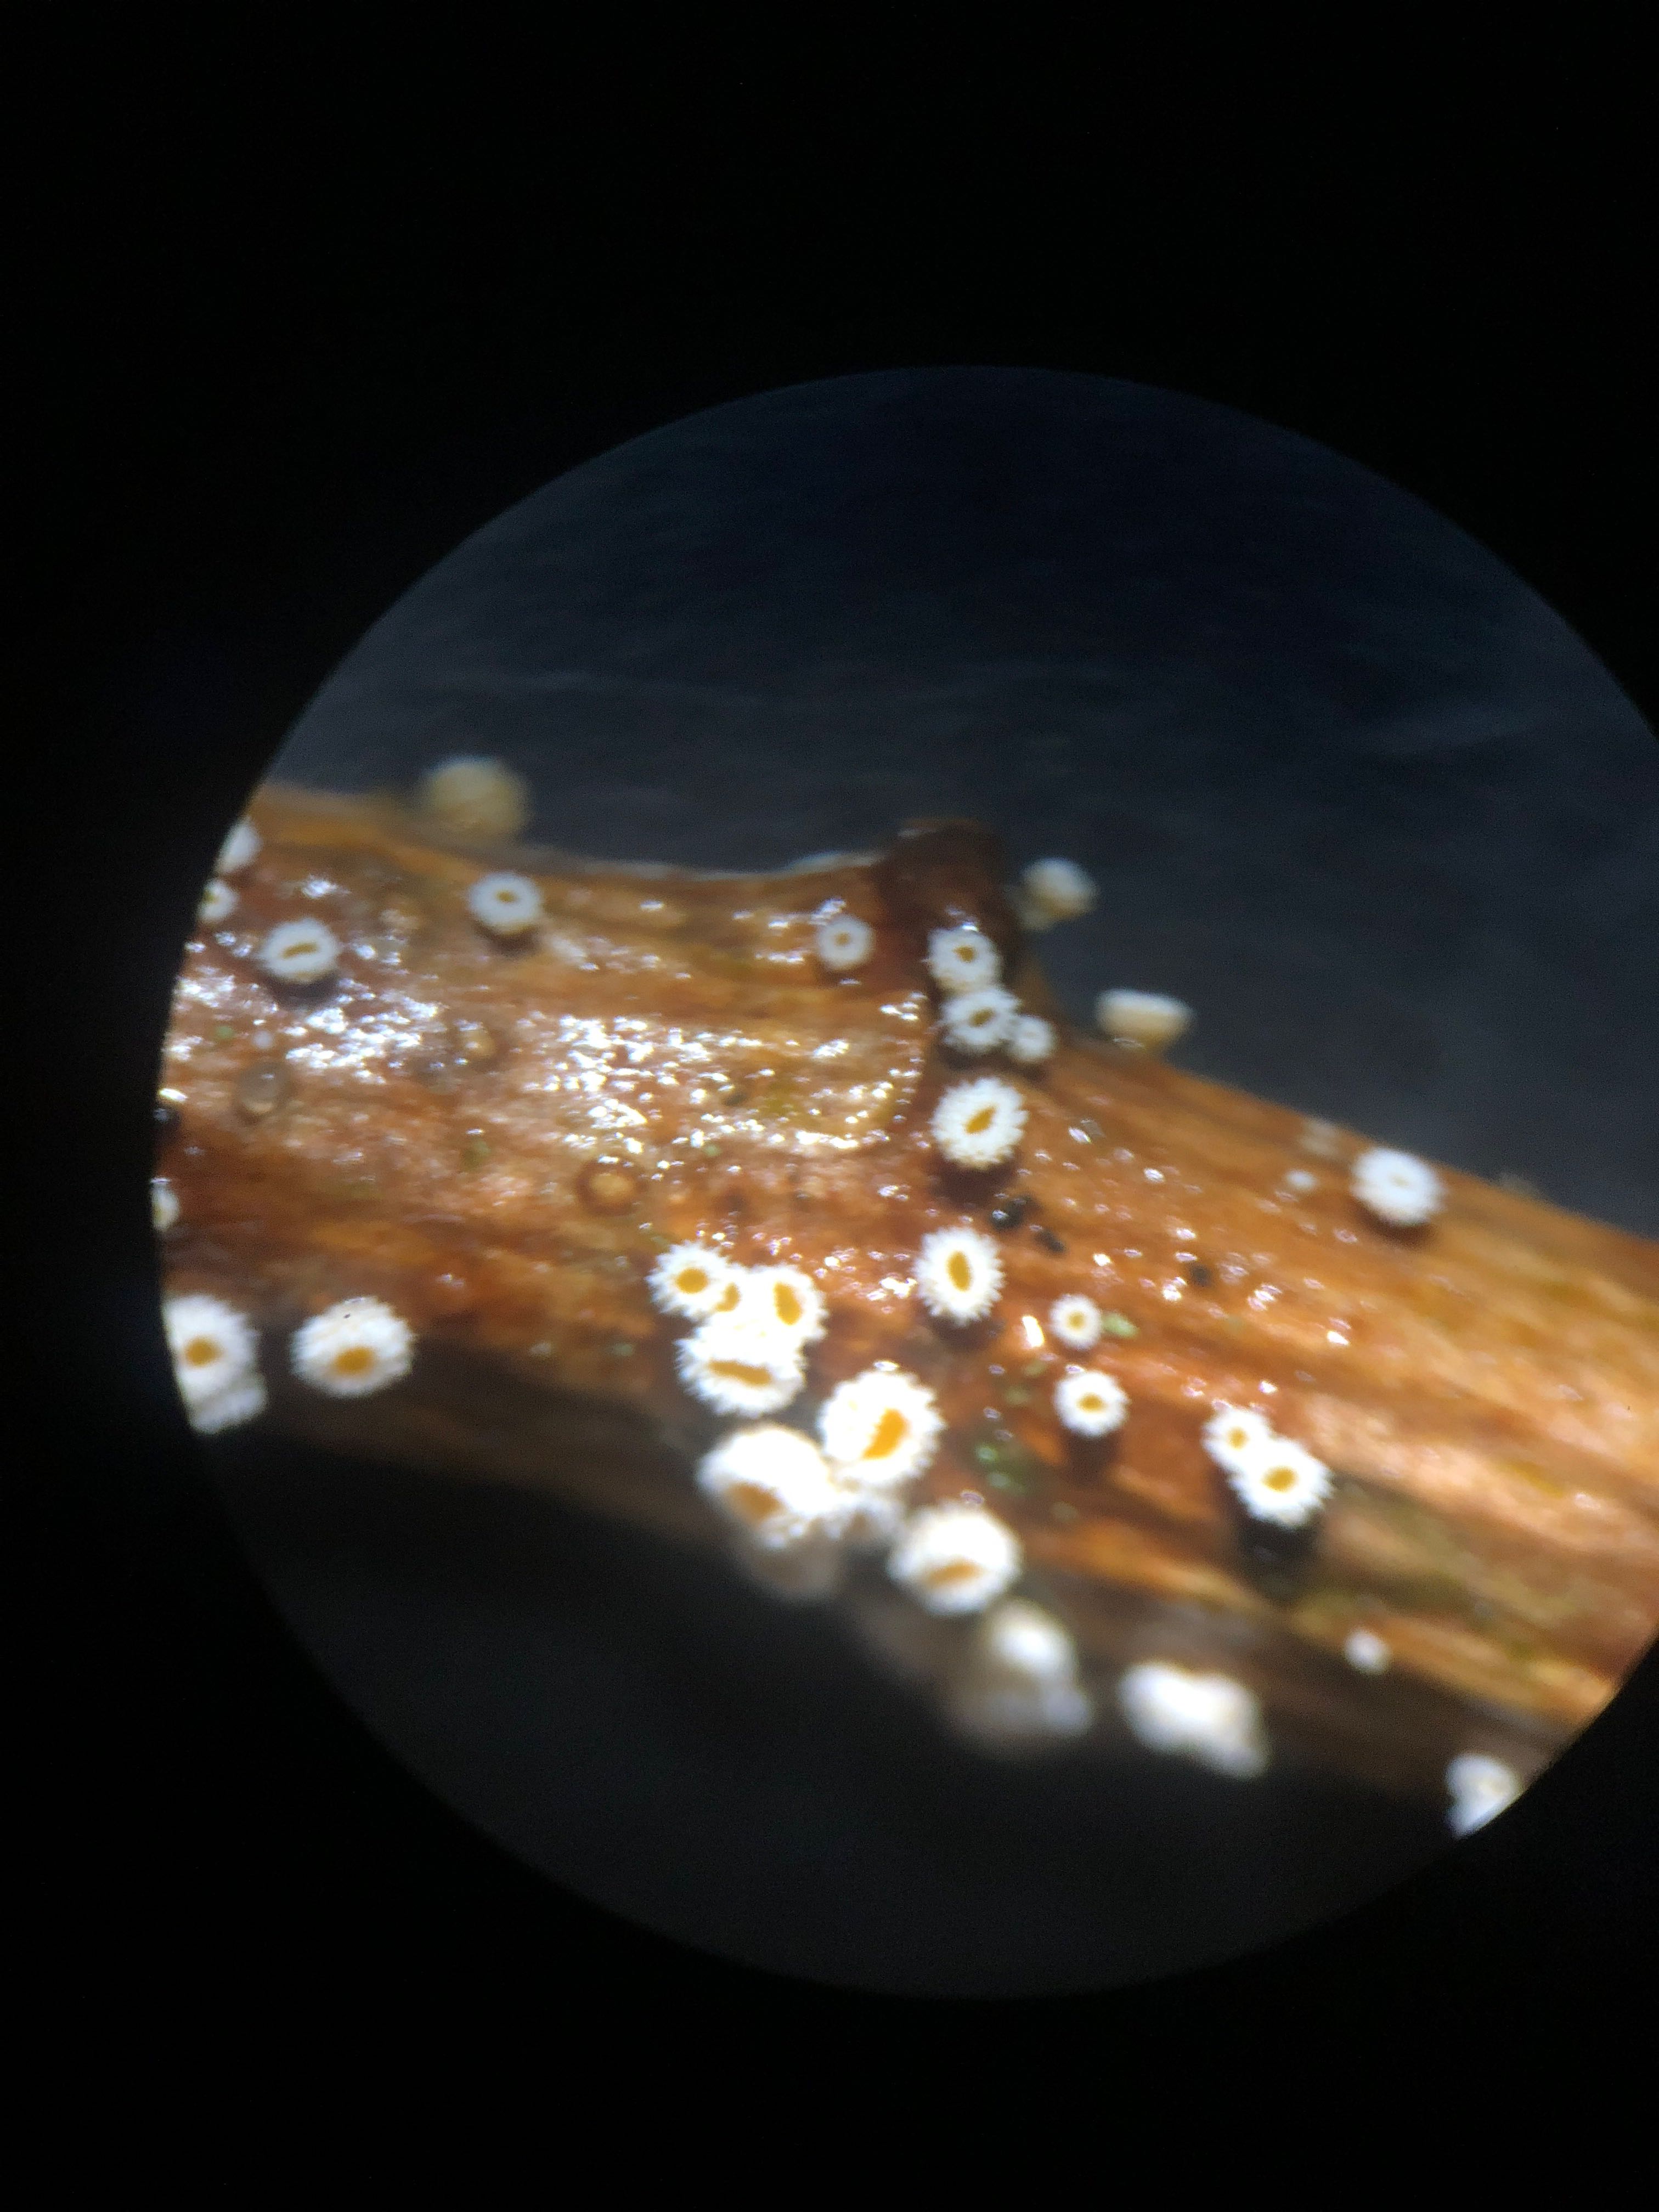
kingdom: Fungi
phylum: Ascomycota
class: Leotiomycetes
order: Helotiales
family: Lachnaceae
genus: Capitotricha
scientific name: Capitotricha bicolor
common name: prægtig frynseskive
